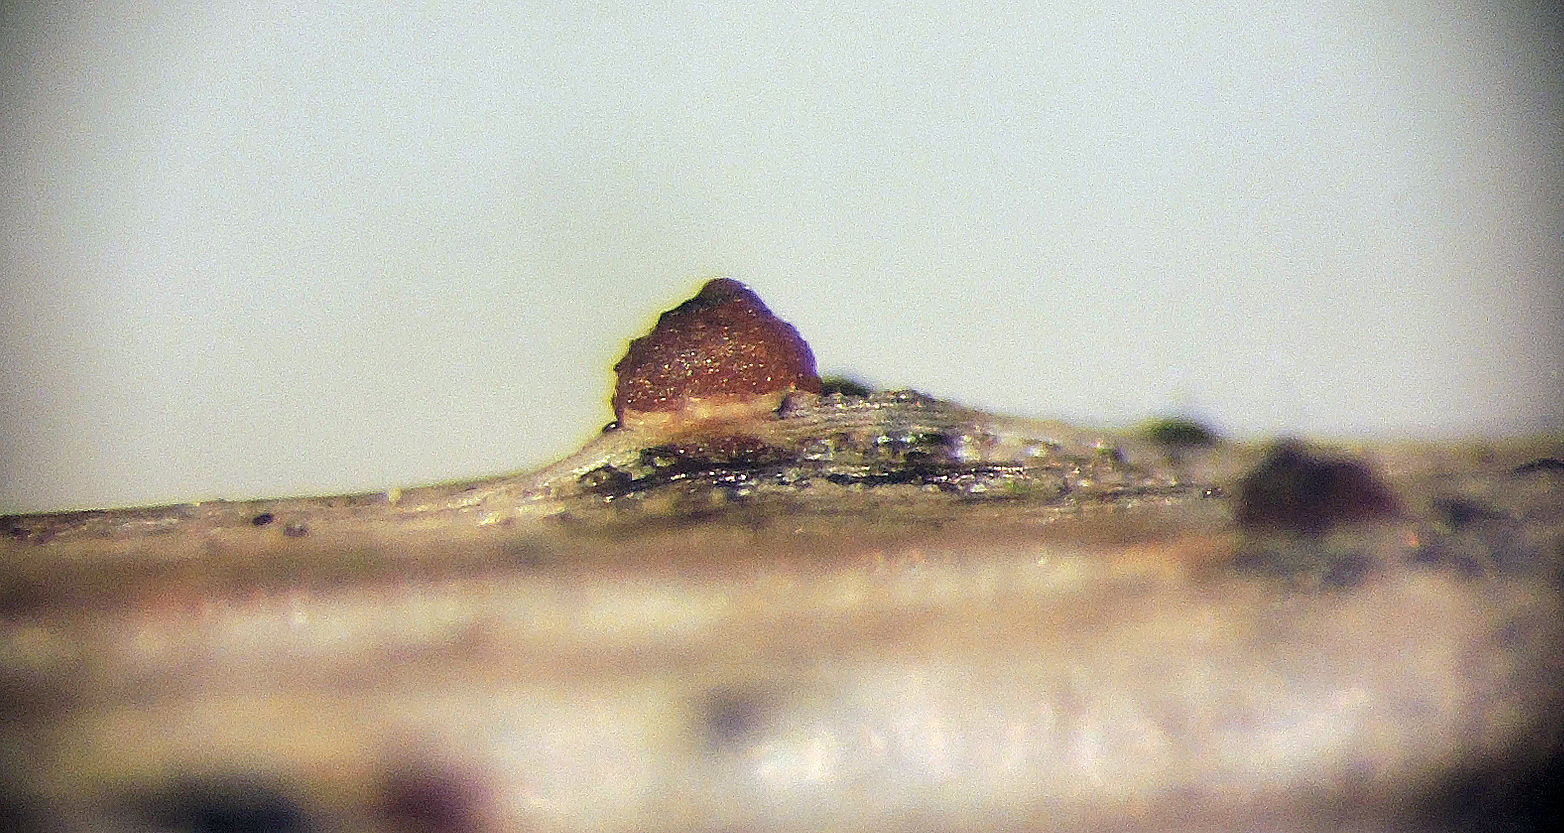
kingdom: Fungi
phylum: Ascomycota
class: Sordariomycetes
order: Hypocreales
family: Nectriaceae
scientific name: Nectriaceae
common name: cinnobersvampfamilien
